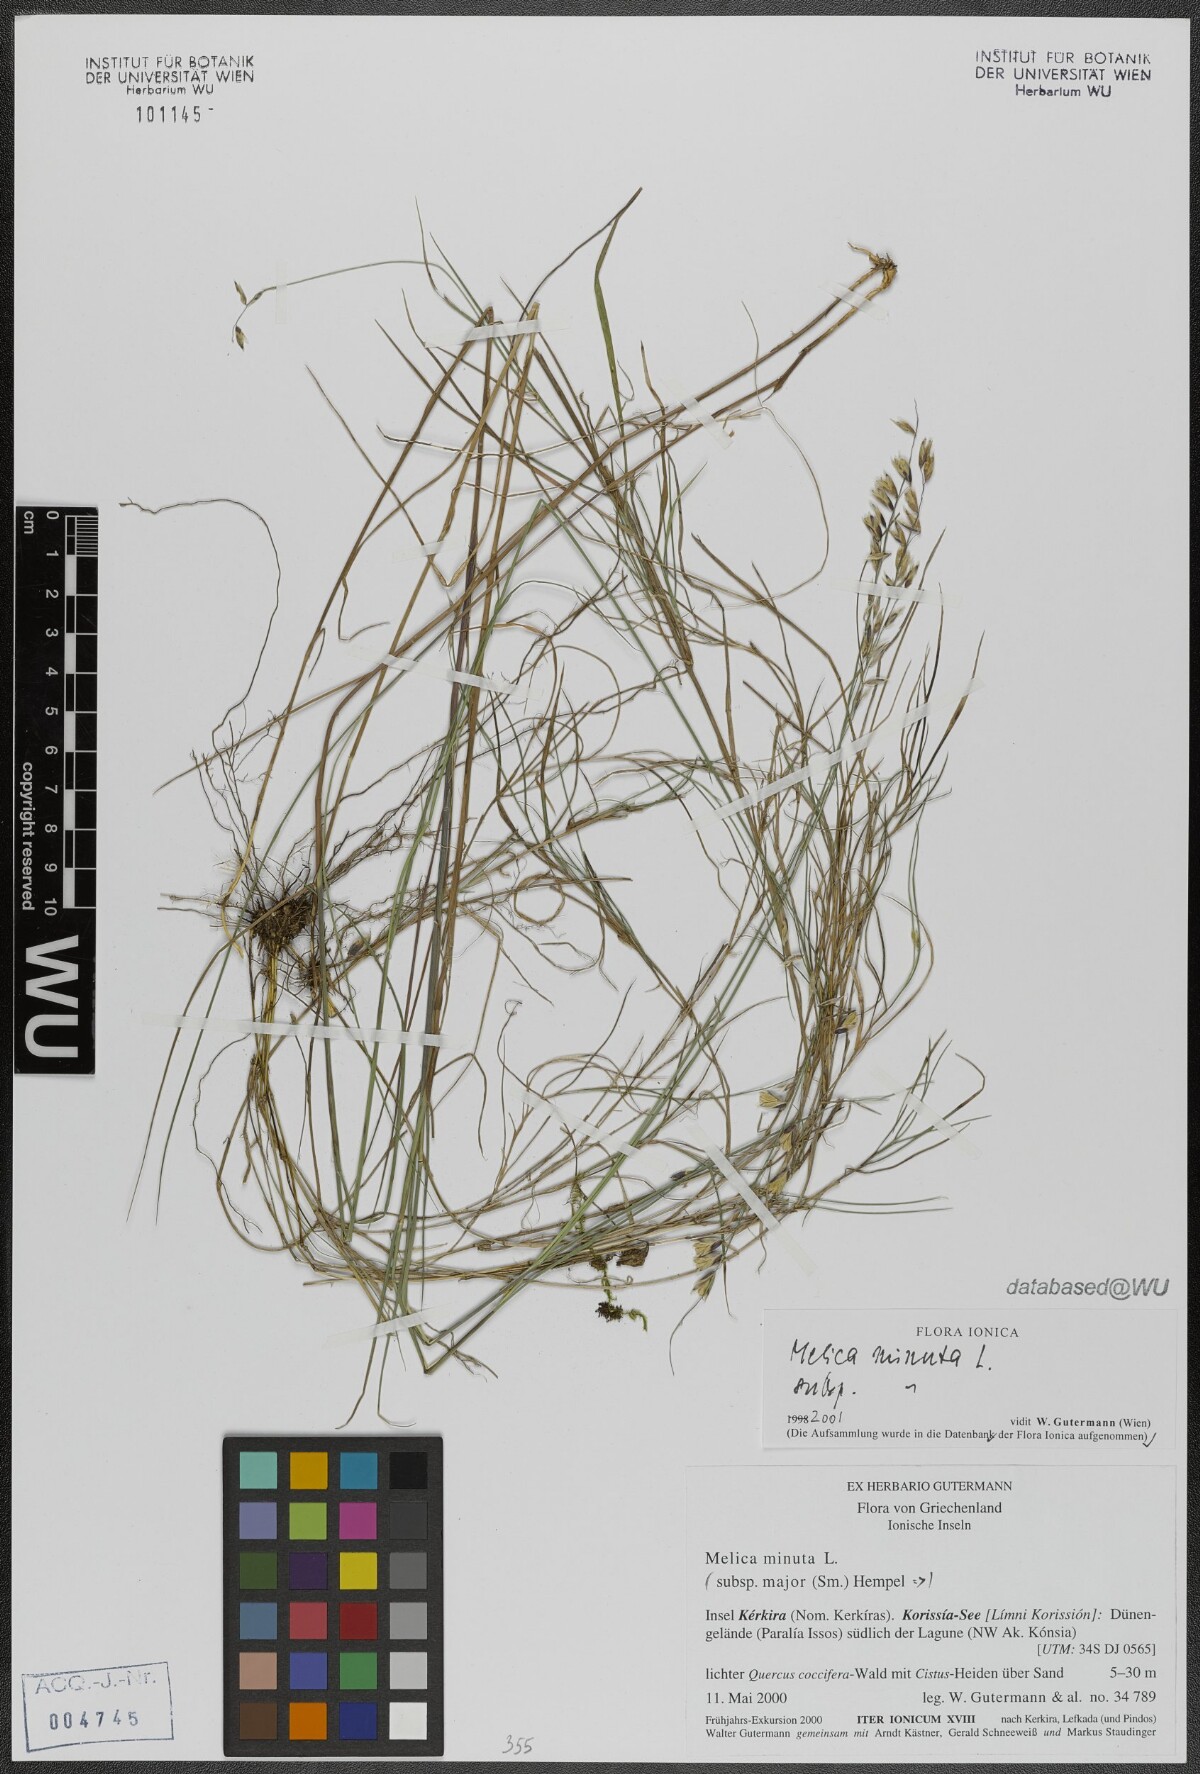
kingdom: Plantae
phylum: Tracheophyta
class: Liliopsida
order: Poales
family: Poaceae
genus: Melica
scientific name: Melica minuta
